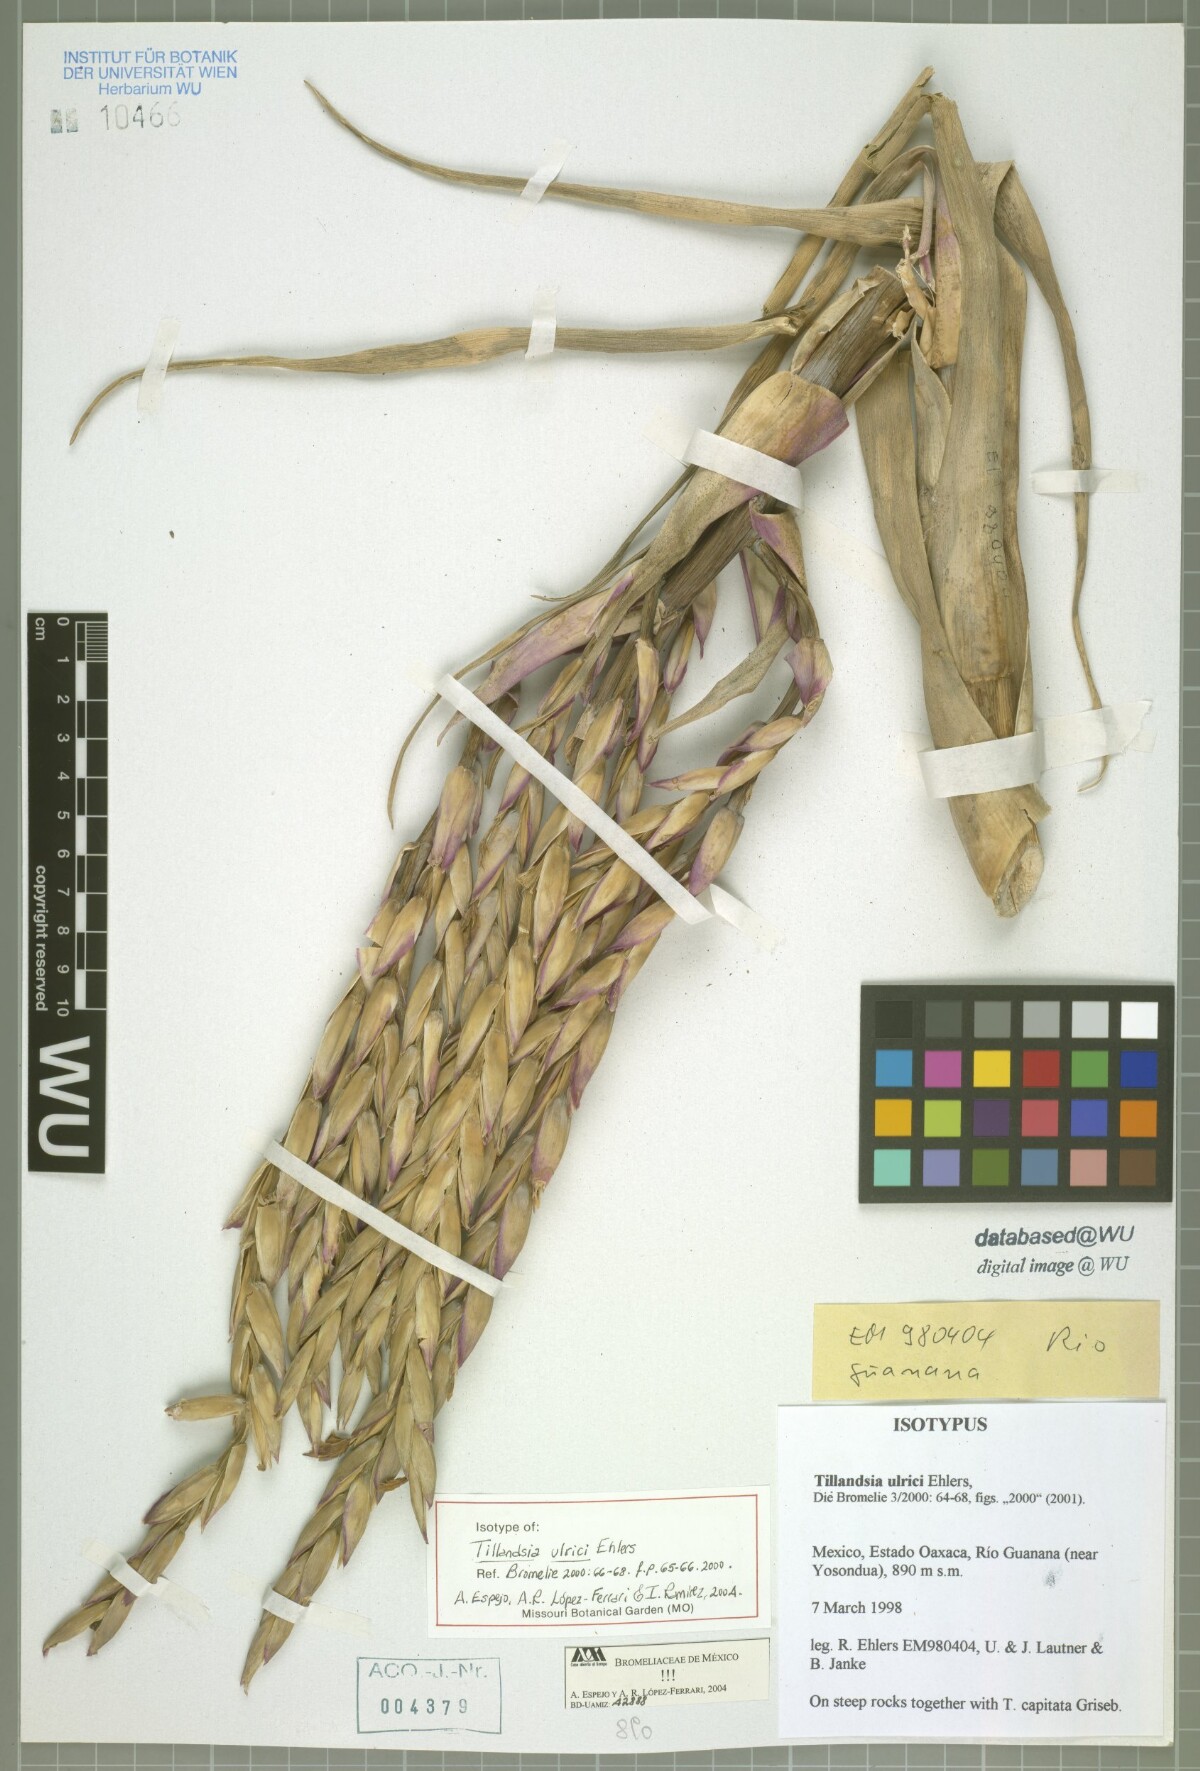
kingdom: Plantae
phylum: Tracheophyta
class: Liliopsida
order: Poales
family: Bromeliaceae
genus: Tillandsia
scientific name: Tillandsia ulrici
